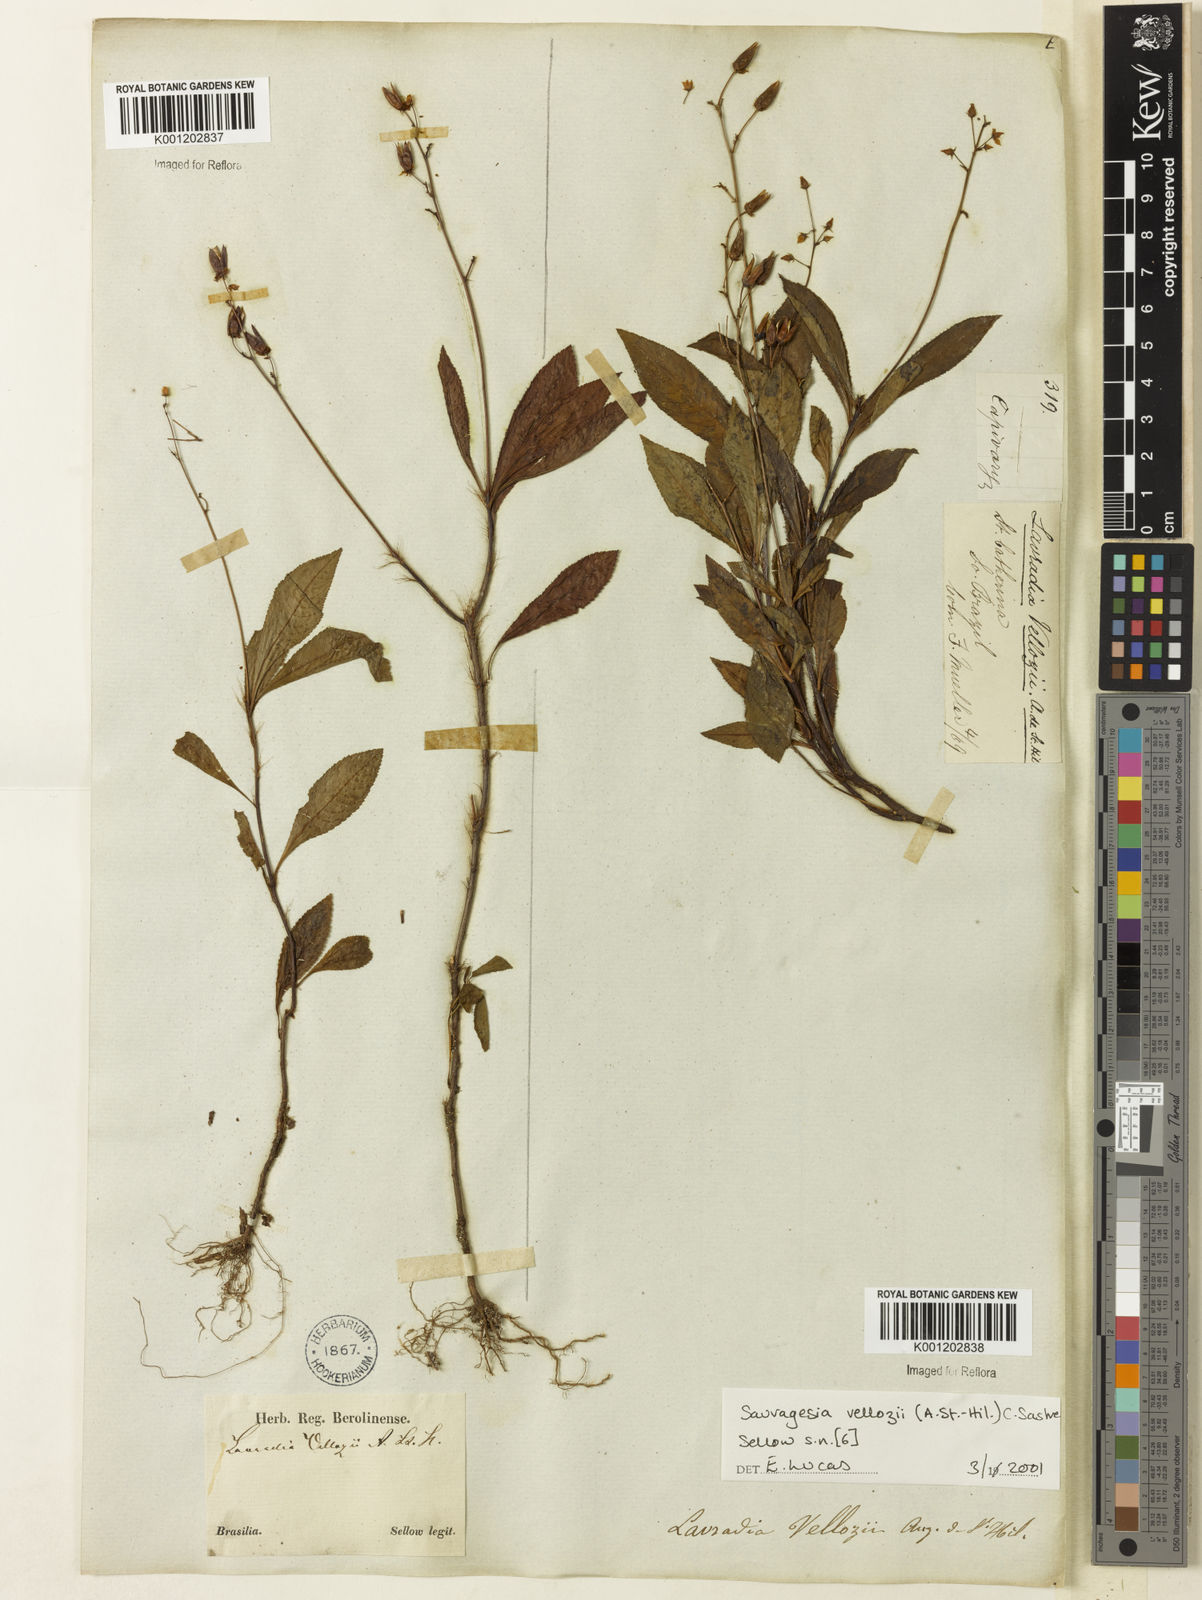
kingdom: Plantae
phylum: Tracheophyta
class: Magnoliopsida
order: Malpighiales
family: Ochnaceae
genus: Sauvagesia
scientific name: Sauvagesia
